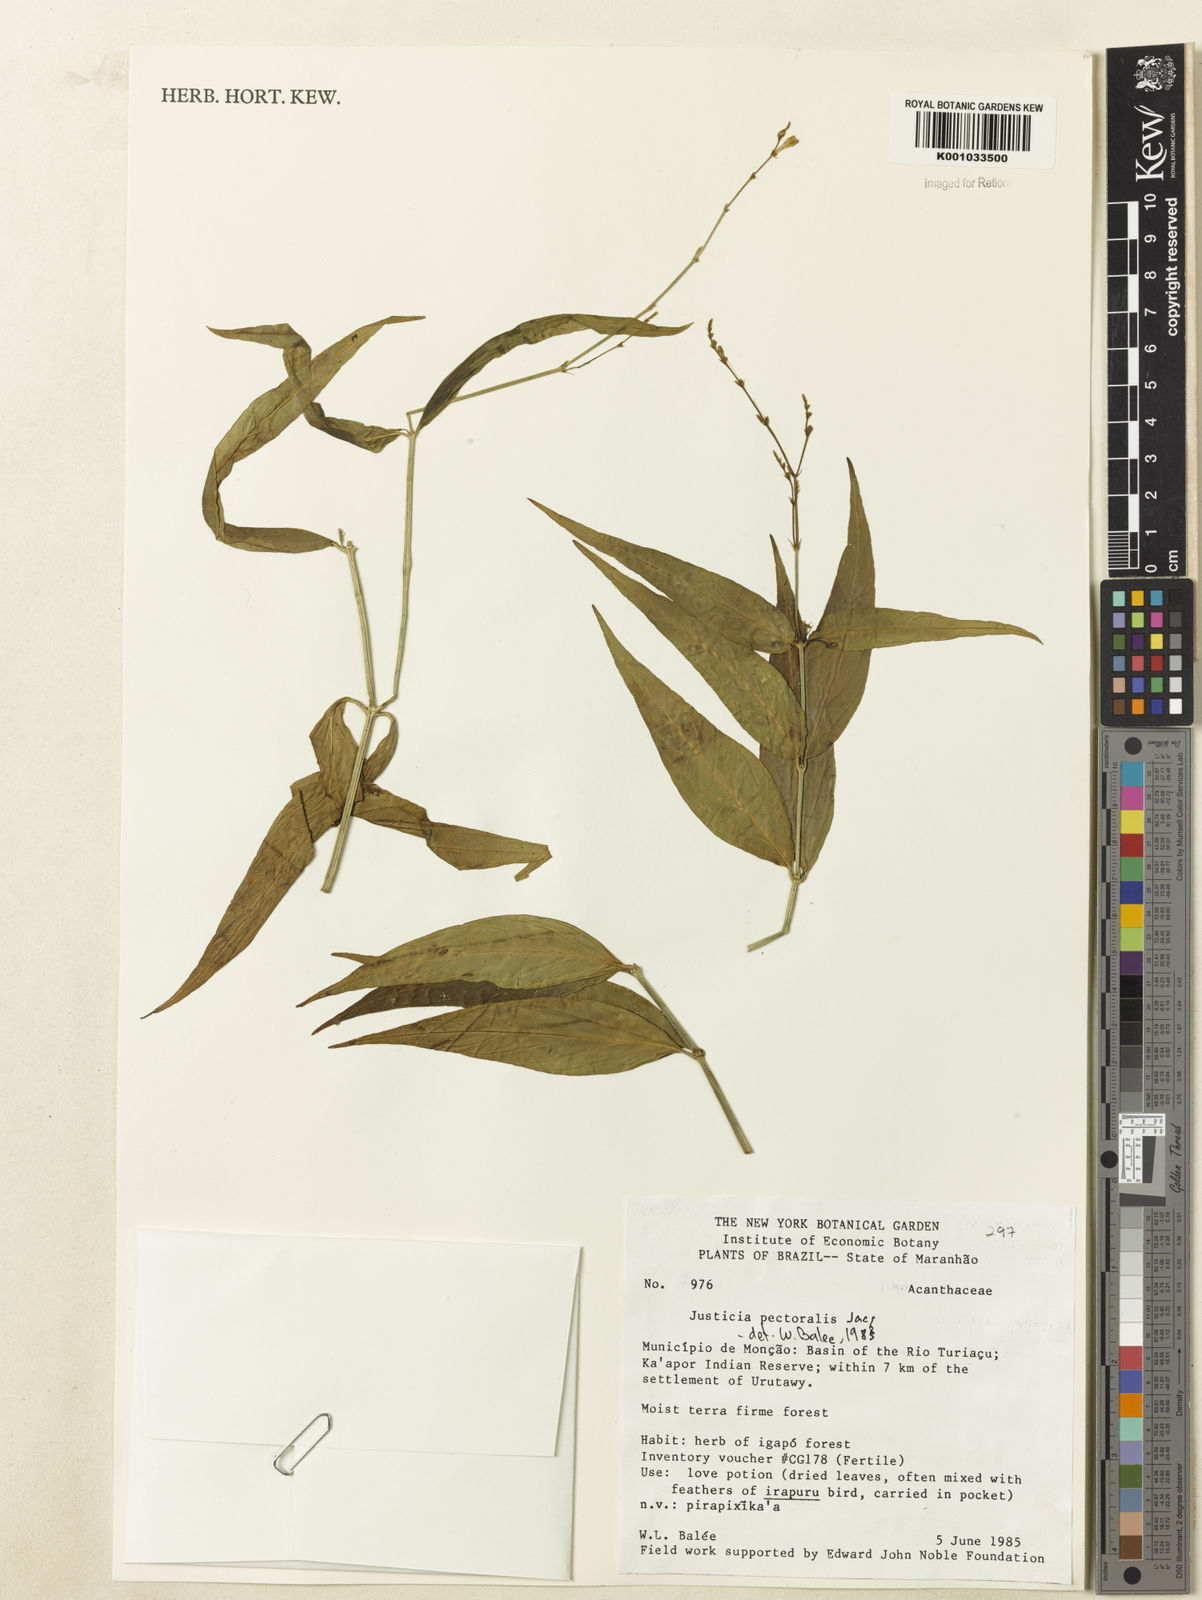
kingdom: Plantae
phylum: Tracheophyta
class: Magnoliopsida
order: Lamiales
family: Acanthaceae
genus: Dianthera
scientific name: Dianthera pectoralis
